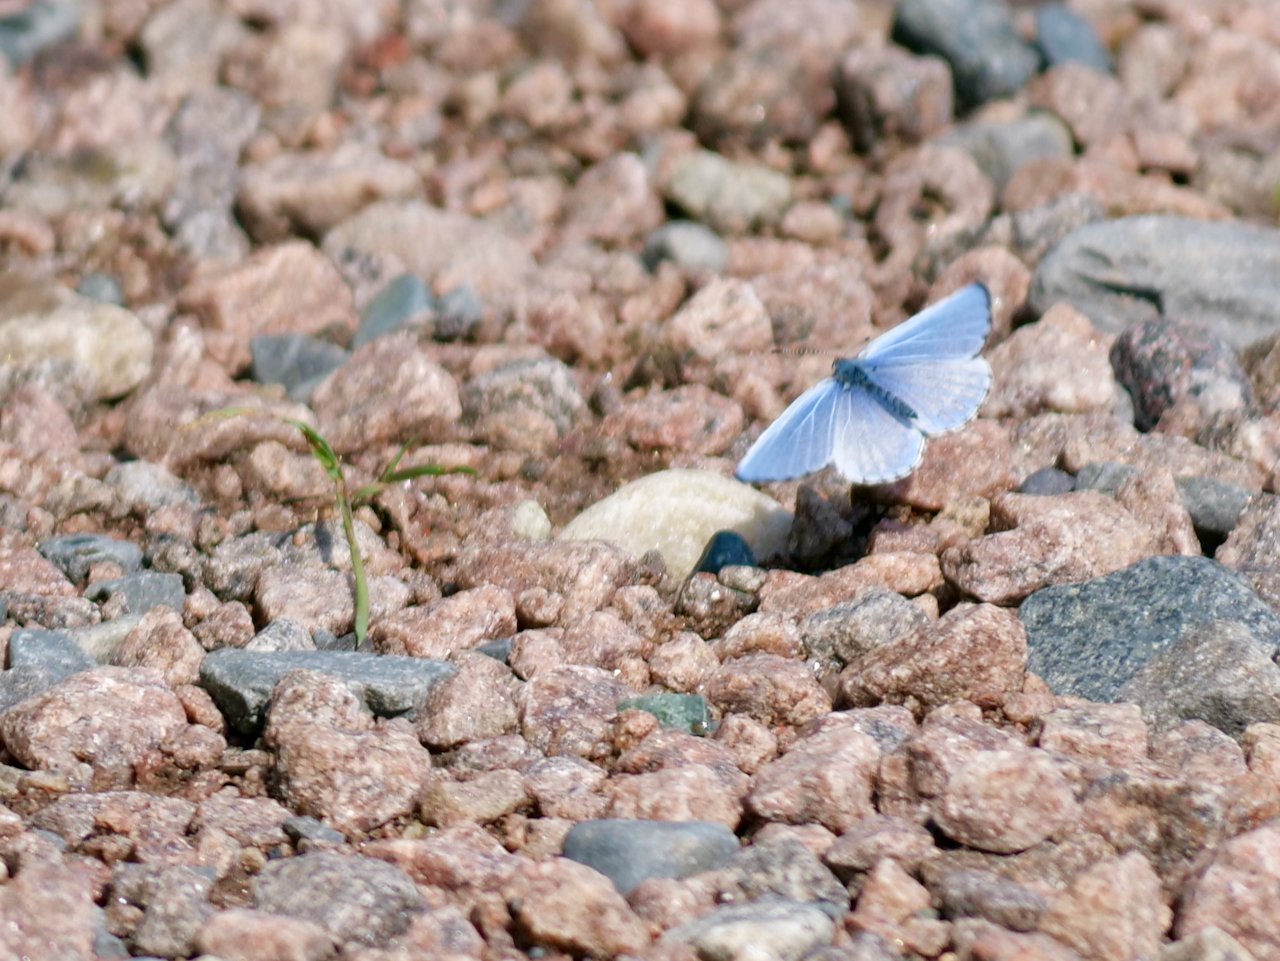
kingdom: Animalia
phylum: Arthropoda
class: Insecta
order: Lepidoptera
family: Lycaenidae
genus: Celastrina
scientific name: Celastrina lucia
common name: Northern Spring Azure
